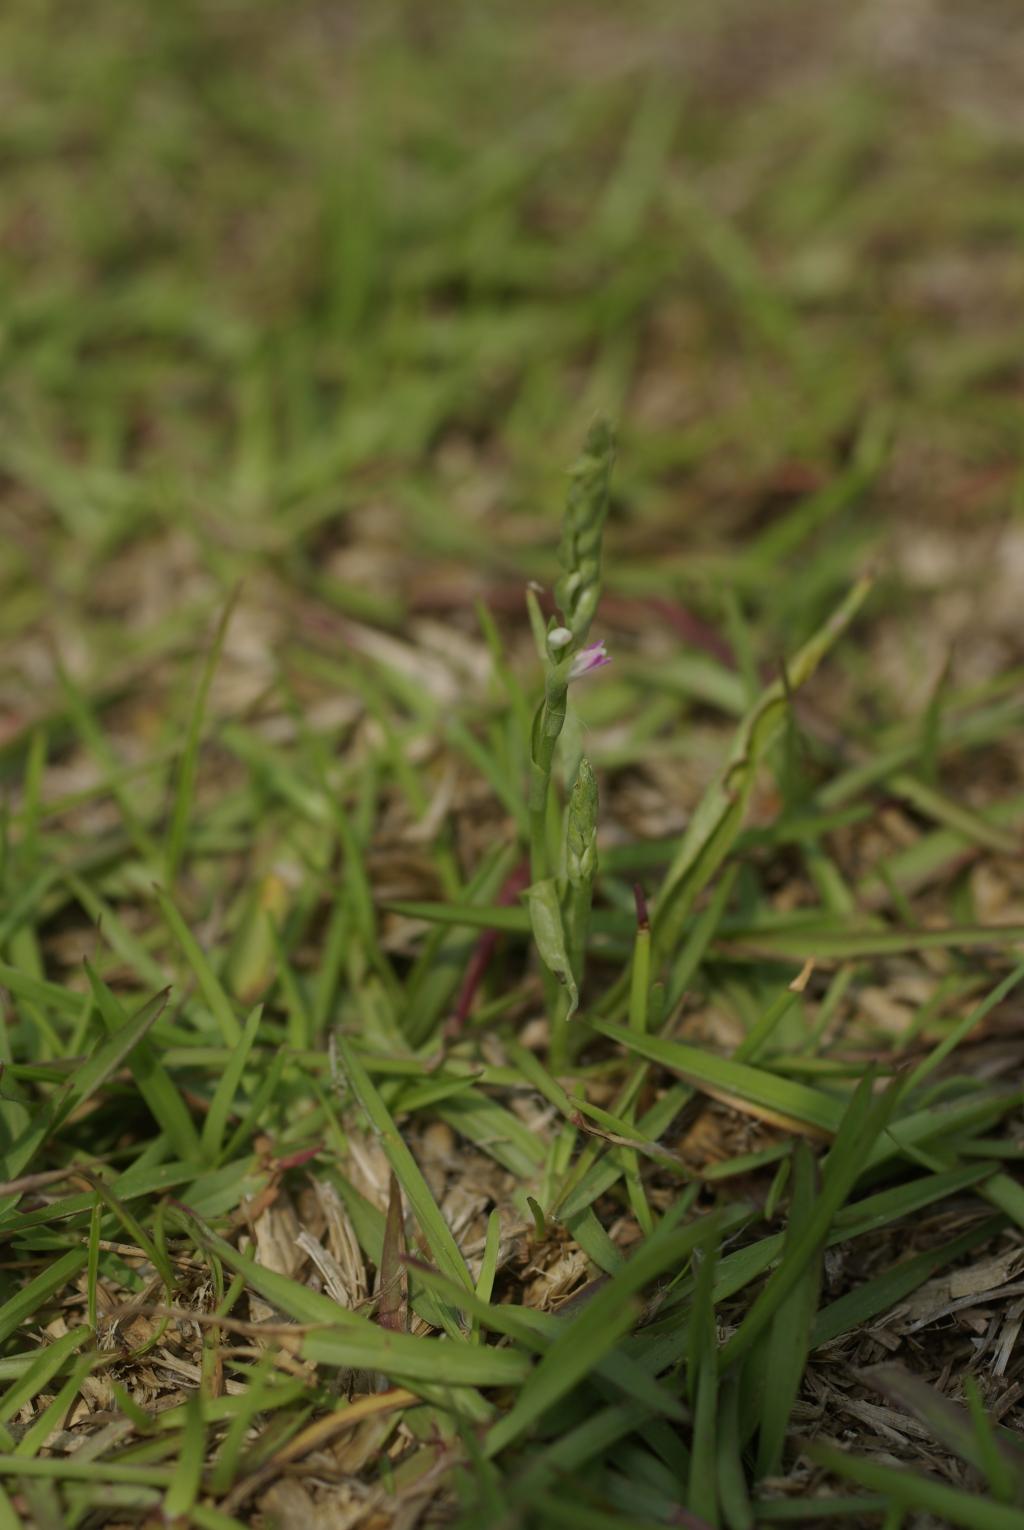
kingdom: Plantae
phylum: Tracheophyta
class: Liliopsida
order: Asparagales
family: Orchidaceae
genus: Spiranthes
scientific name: Spiranthes sinensis
